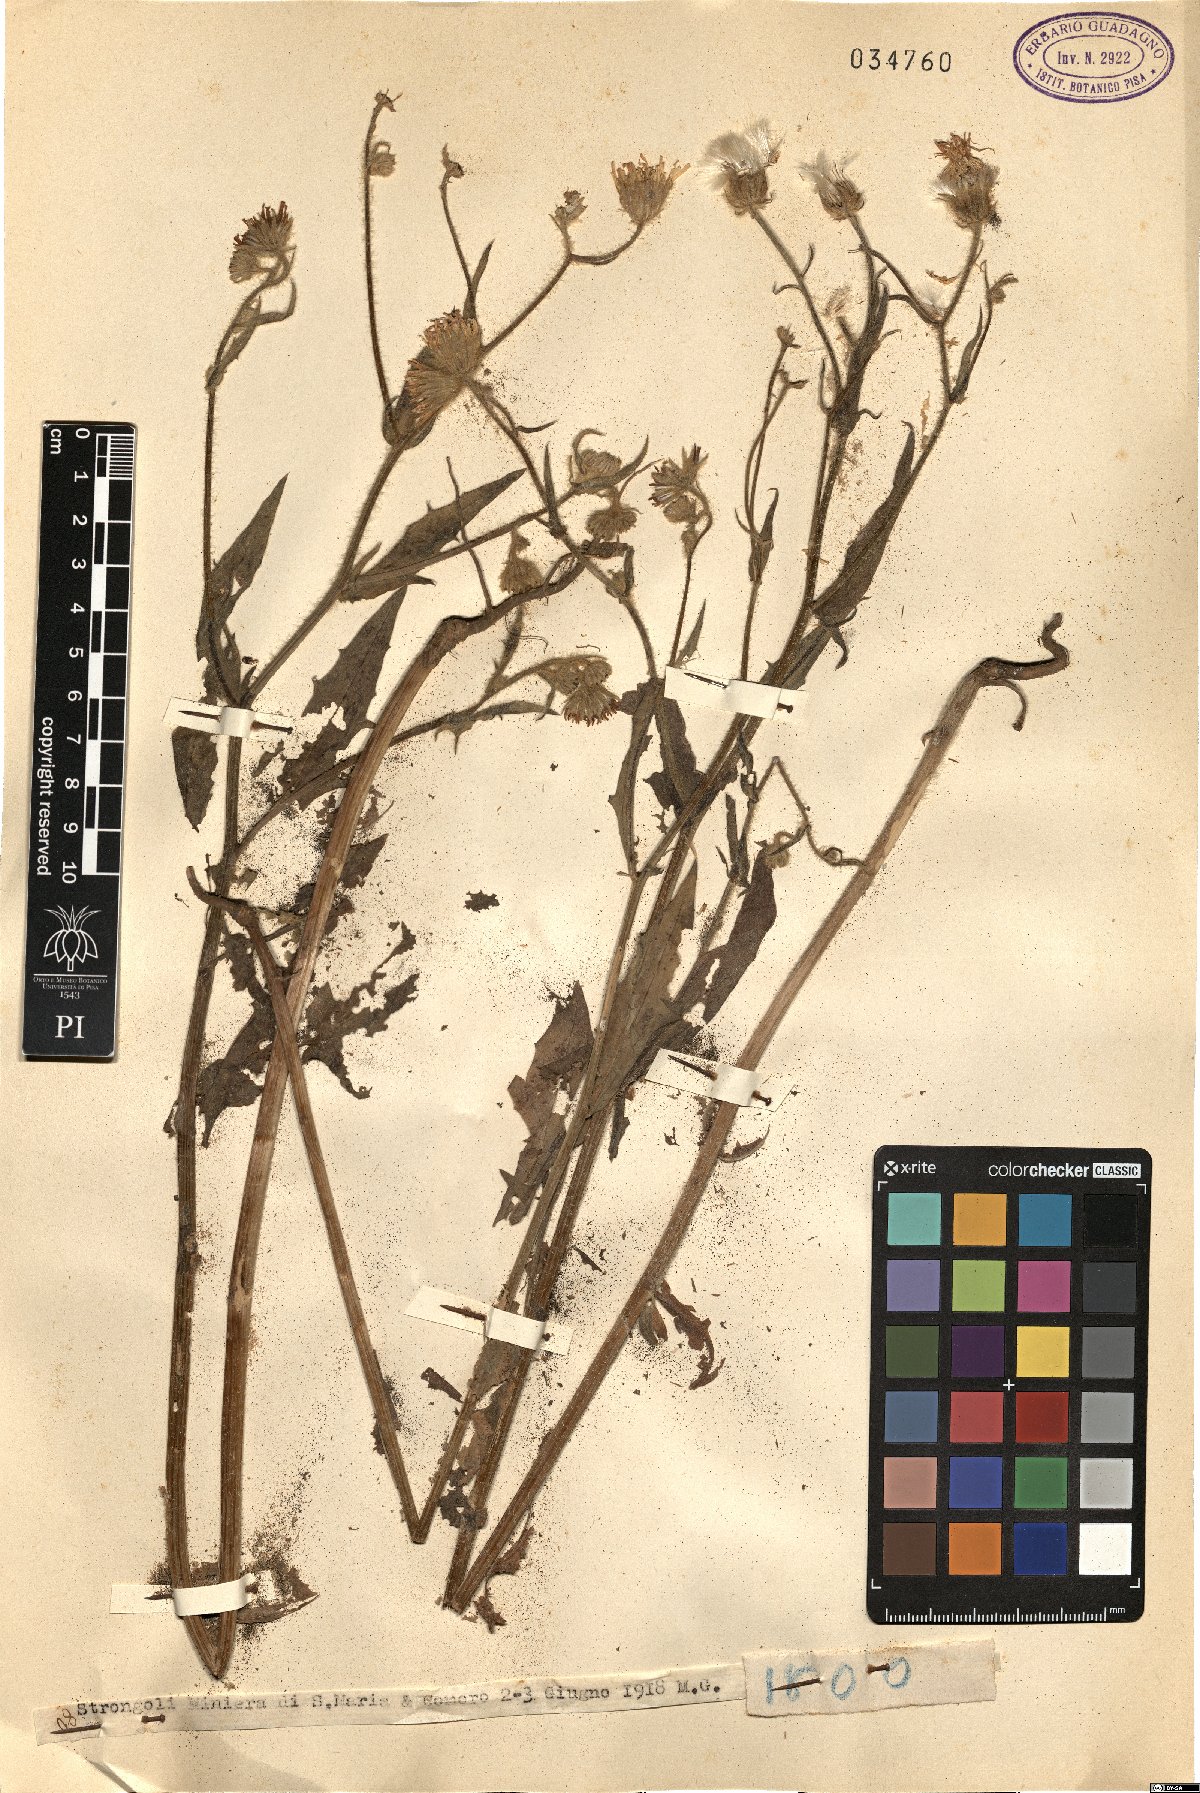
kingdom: Plantae
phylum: Tracheophyta
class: Magnoliopsida
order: Asterales
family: Asteraceae
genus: Andryala
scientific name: Andryala
